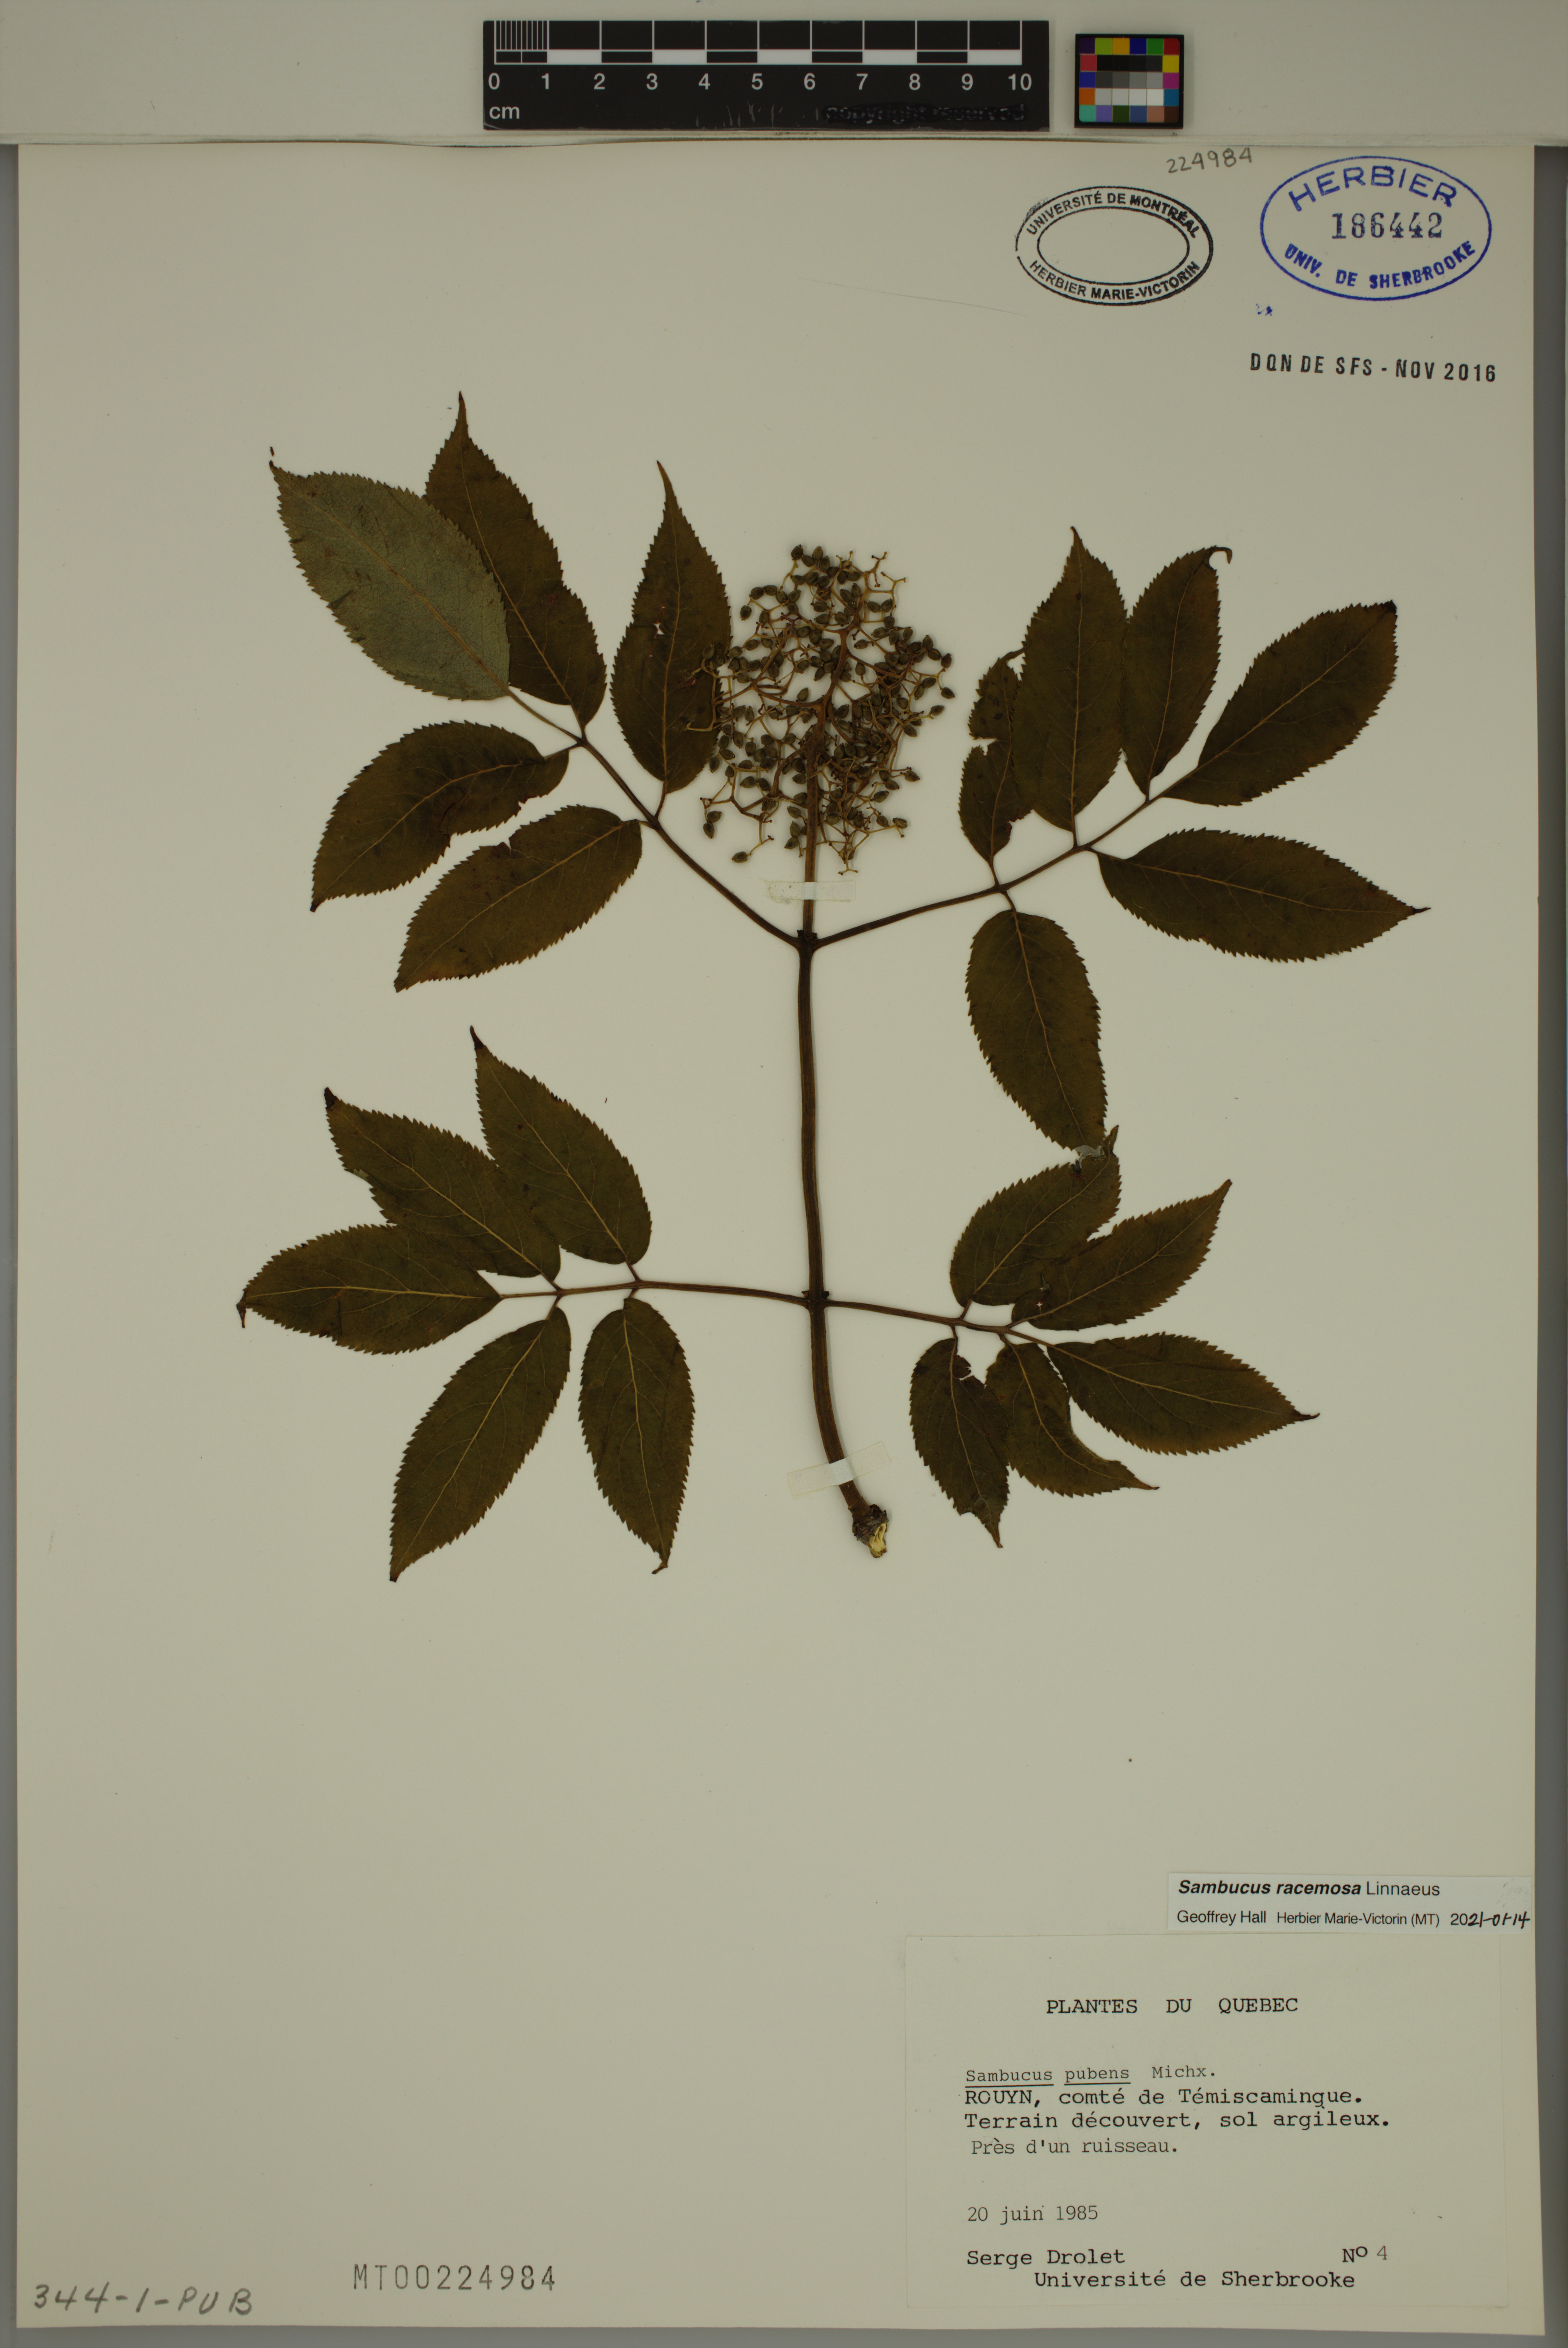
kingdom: Plantae
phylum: Tracheophyta
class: Magnoliopsida
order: Dipsacales
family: Viburnaceae
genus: Sambucus
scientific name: Sambucus racemosa
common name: Red-berried elder
